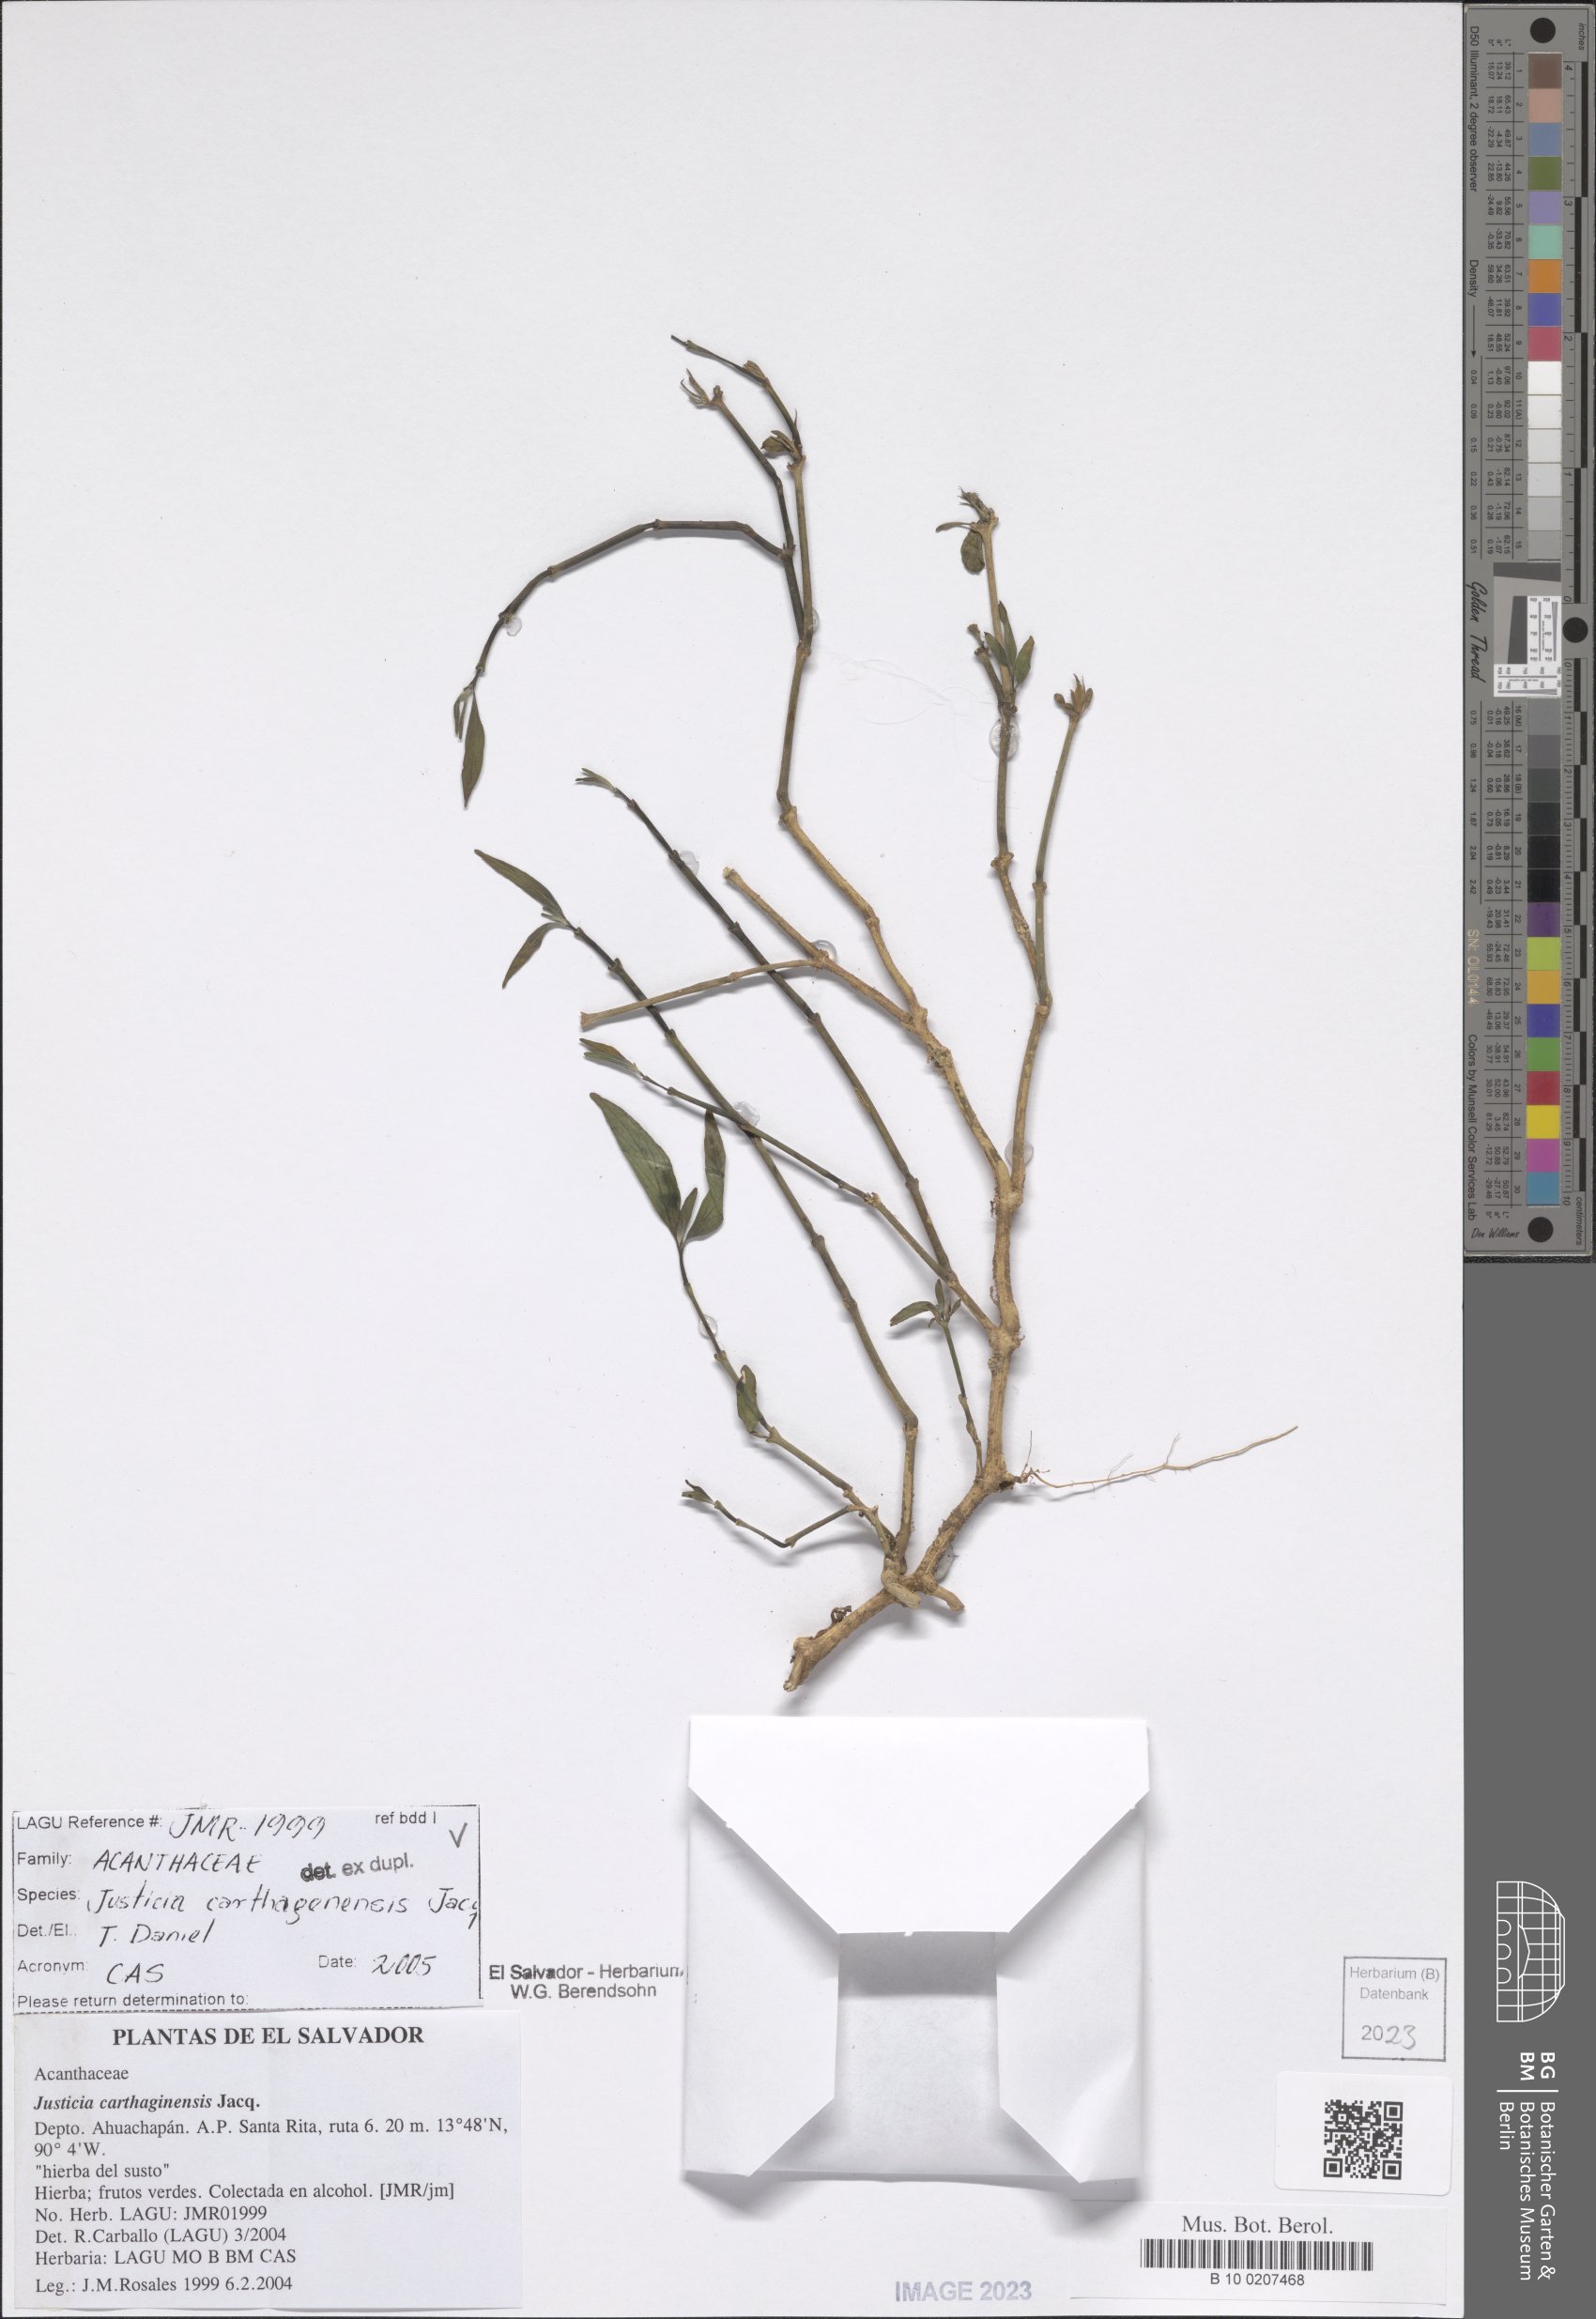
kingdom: Plantae
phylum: Tracheophyta
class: Magnoliopsida
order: Lamiales
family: Acanthaceae
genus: Justicia
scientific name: Justicia carthagenensis
